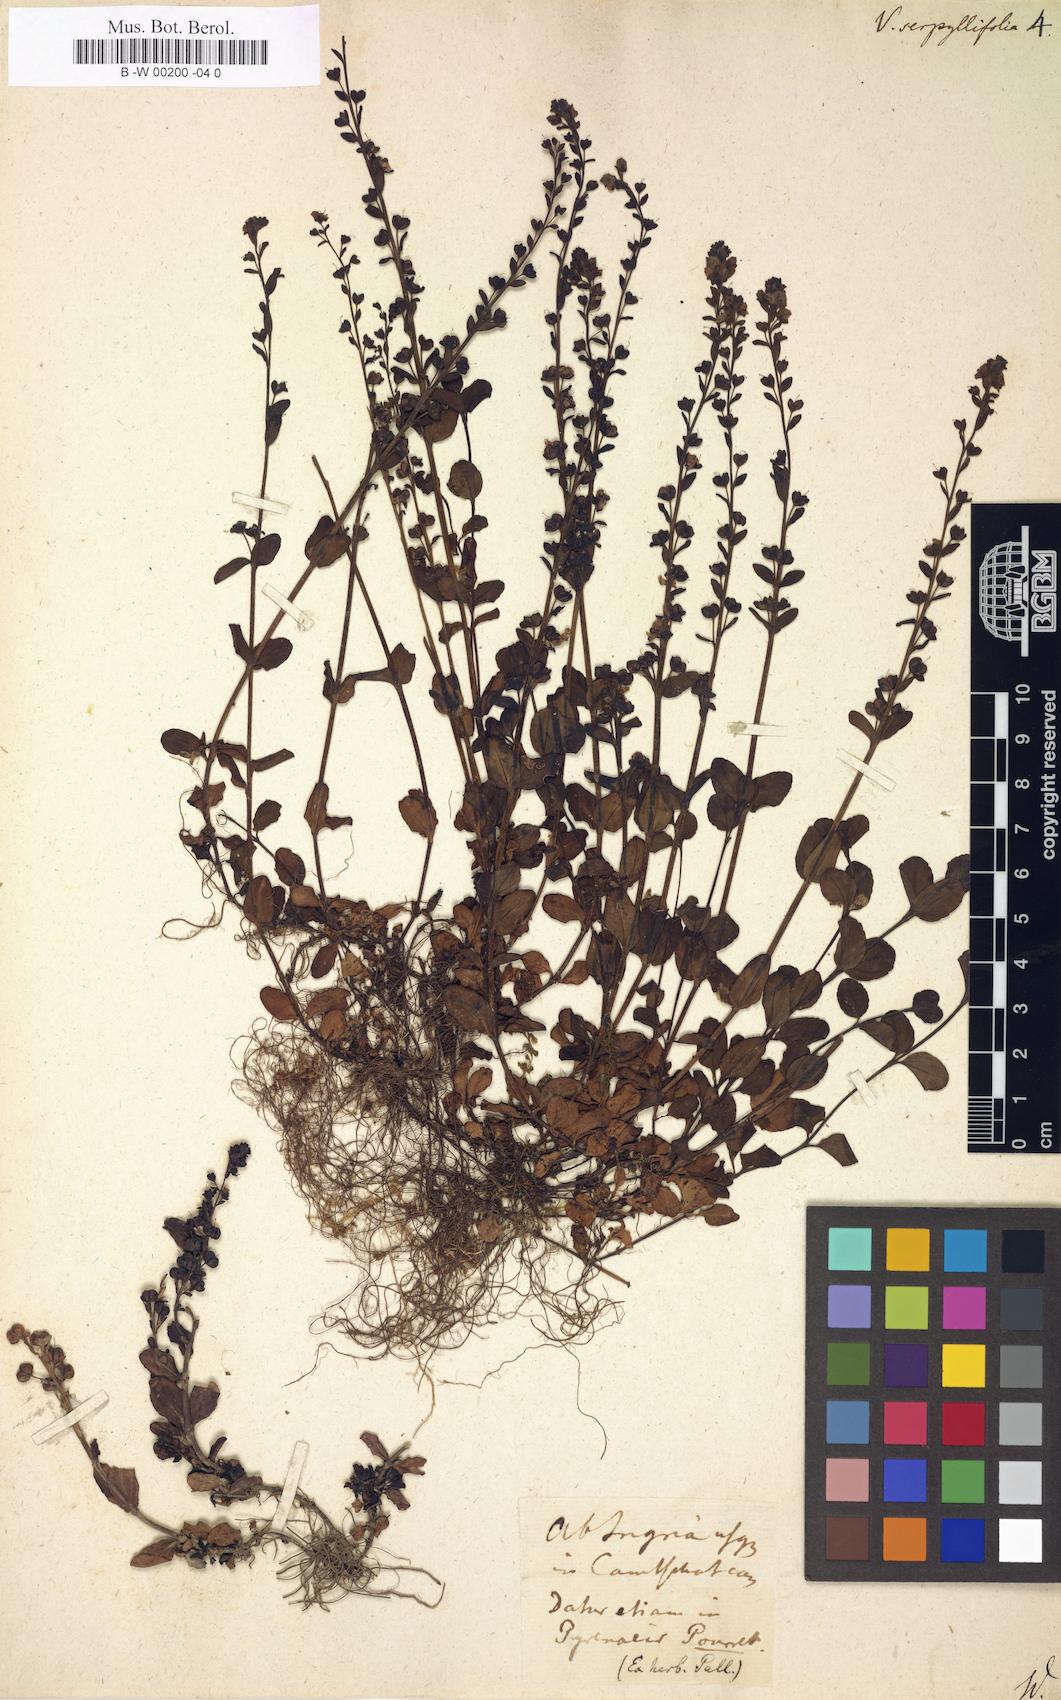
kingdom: Plantae
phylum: Tracheophyta
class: Magnoliopsida
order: Lamiales
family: Plantaginaceae
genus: Veronica
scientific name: Veronica serpyllifolia
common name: Thyme-leaved speedwell
